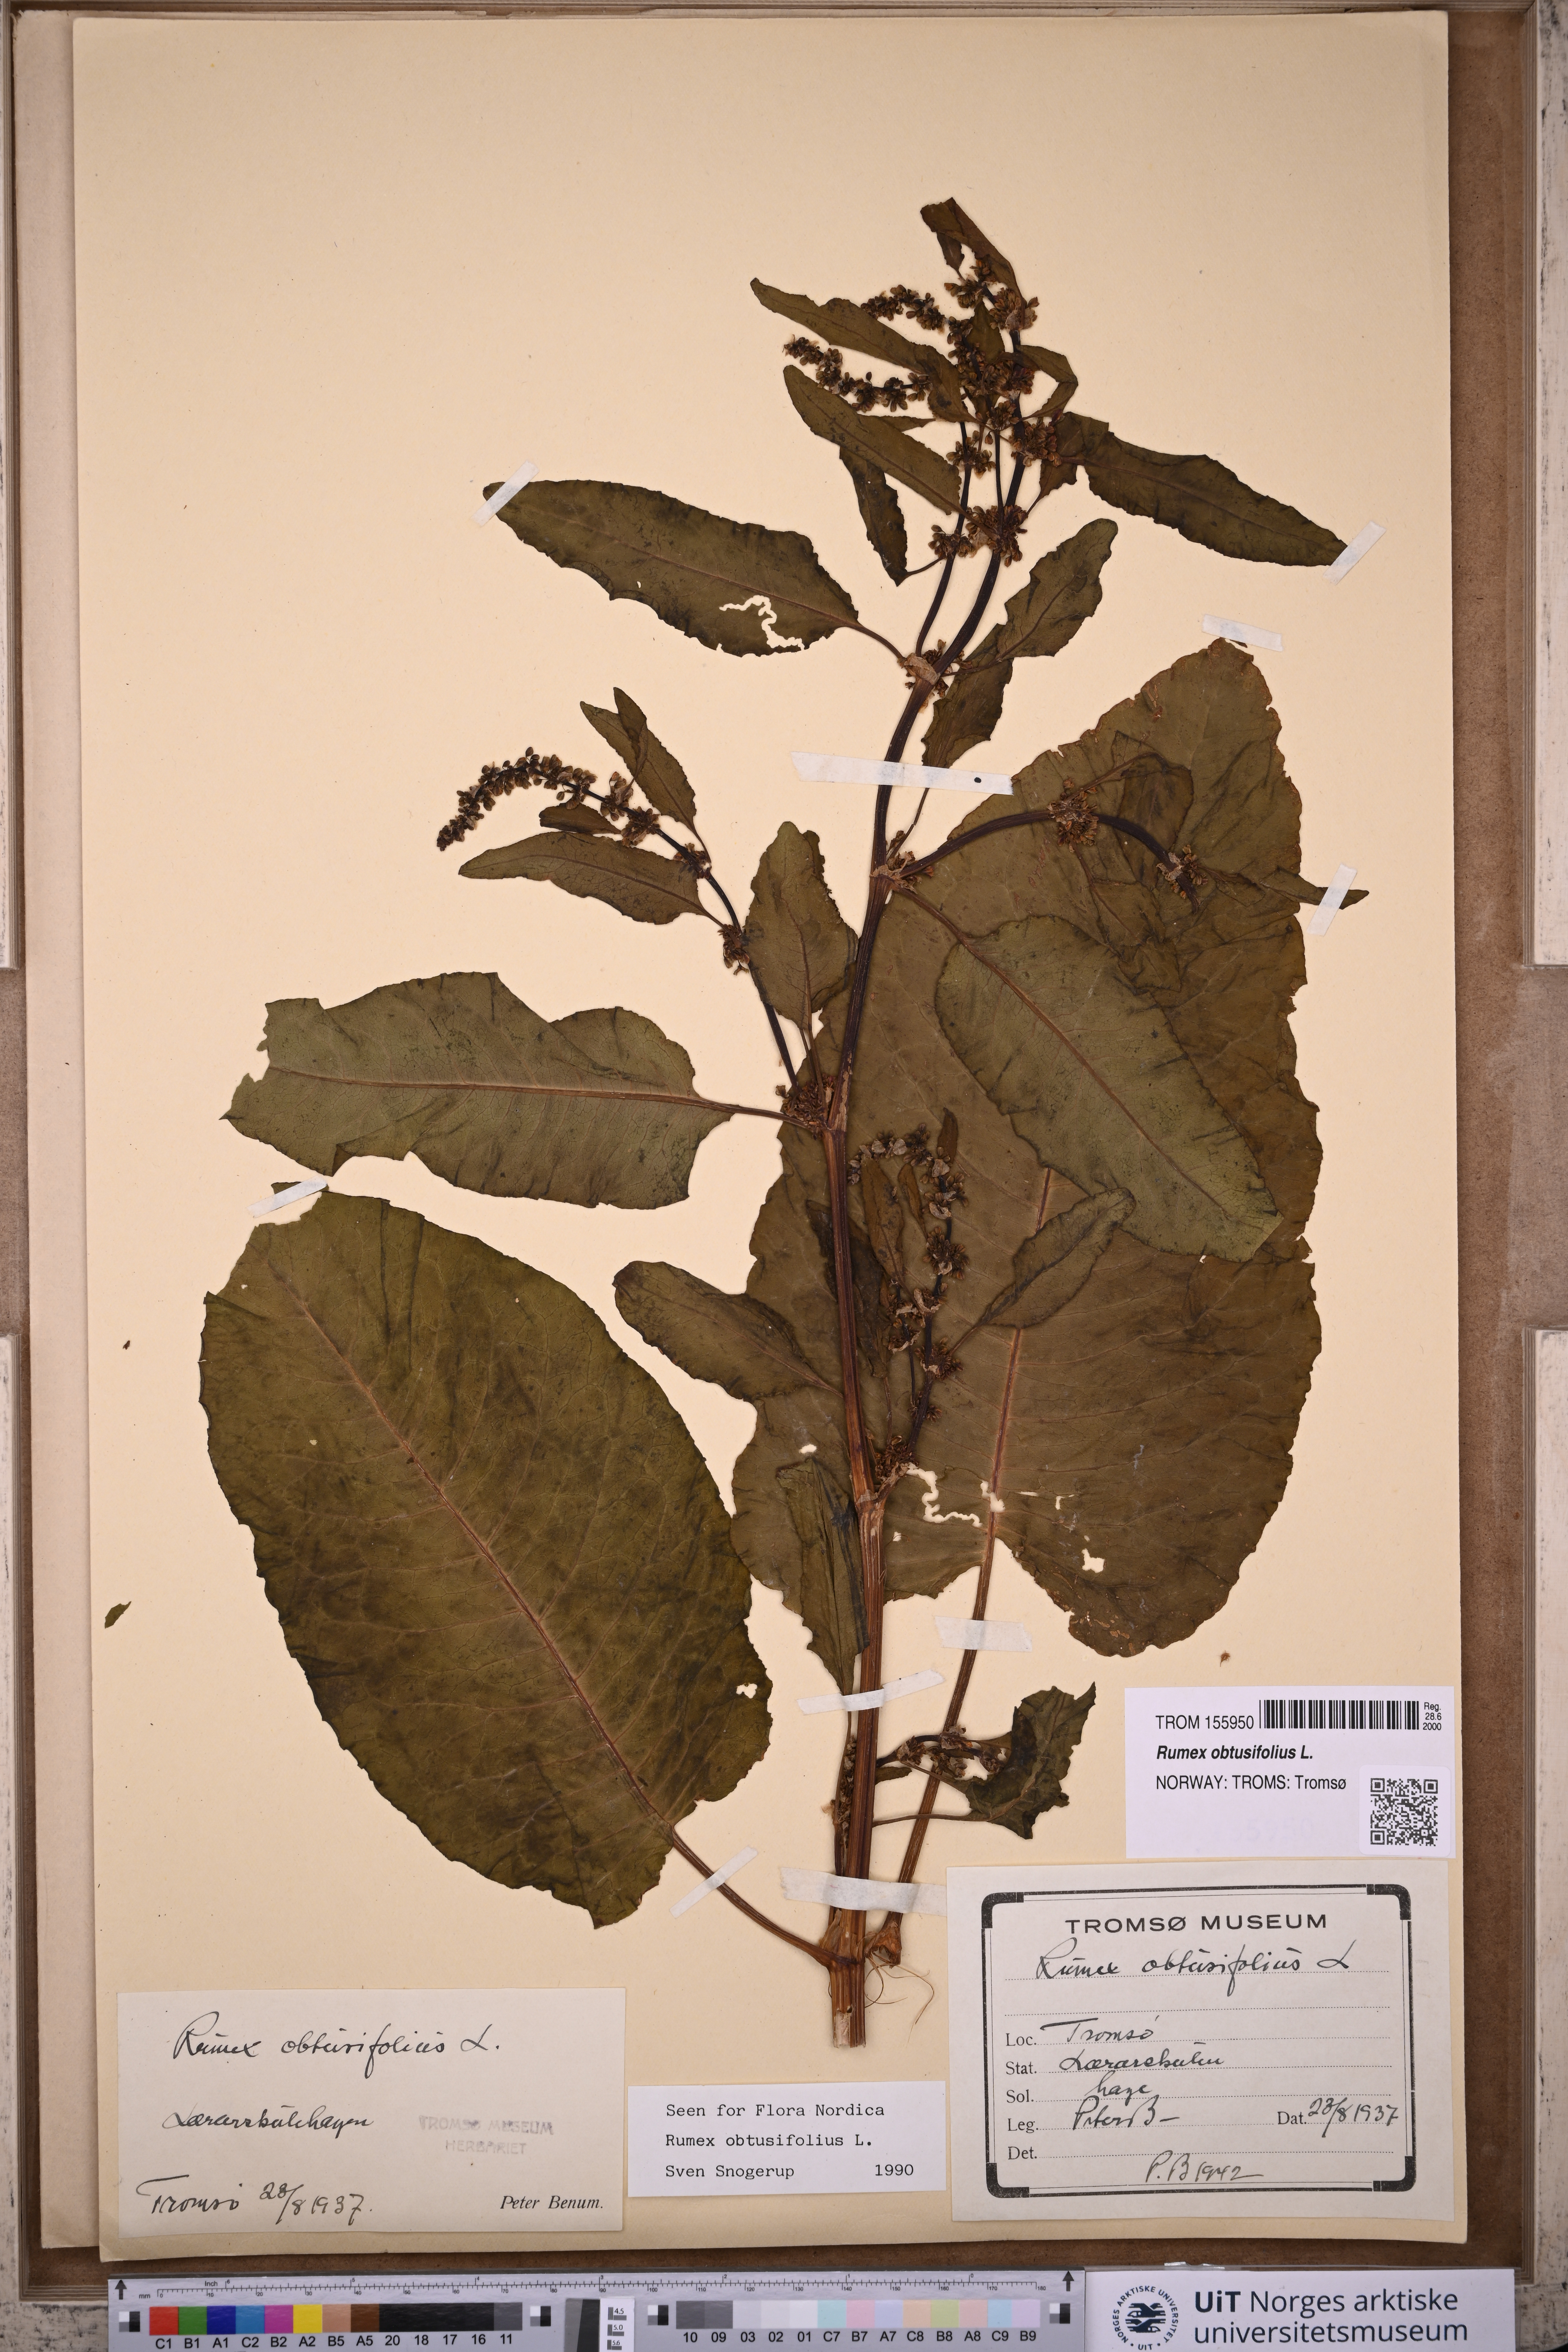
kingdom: Plantae
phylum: Tracheophyta
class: Magnoliopsida
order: Caryophyllales
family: Polygonaceae
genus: Rumex
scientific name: Rumex obtusifolius
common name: Bitter dock
